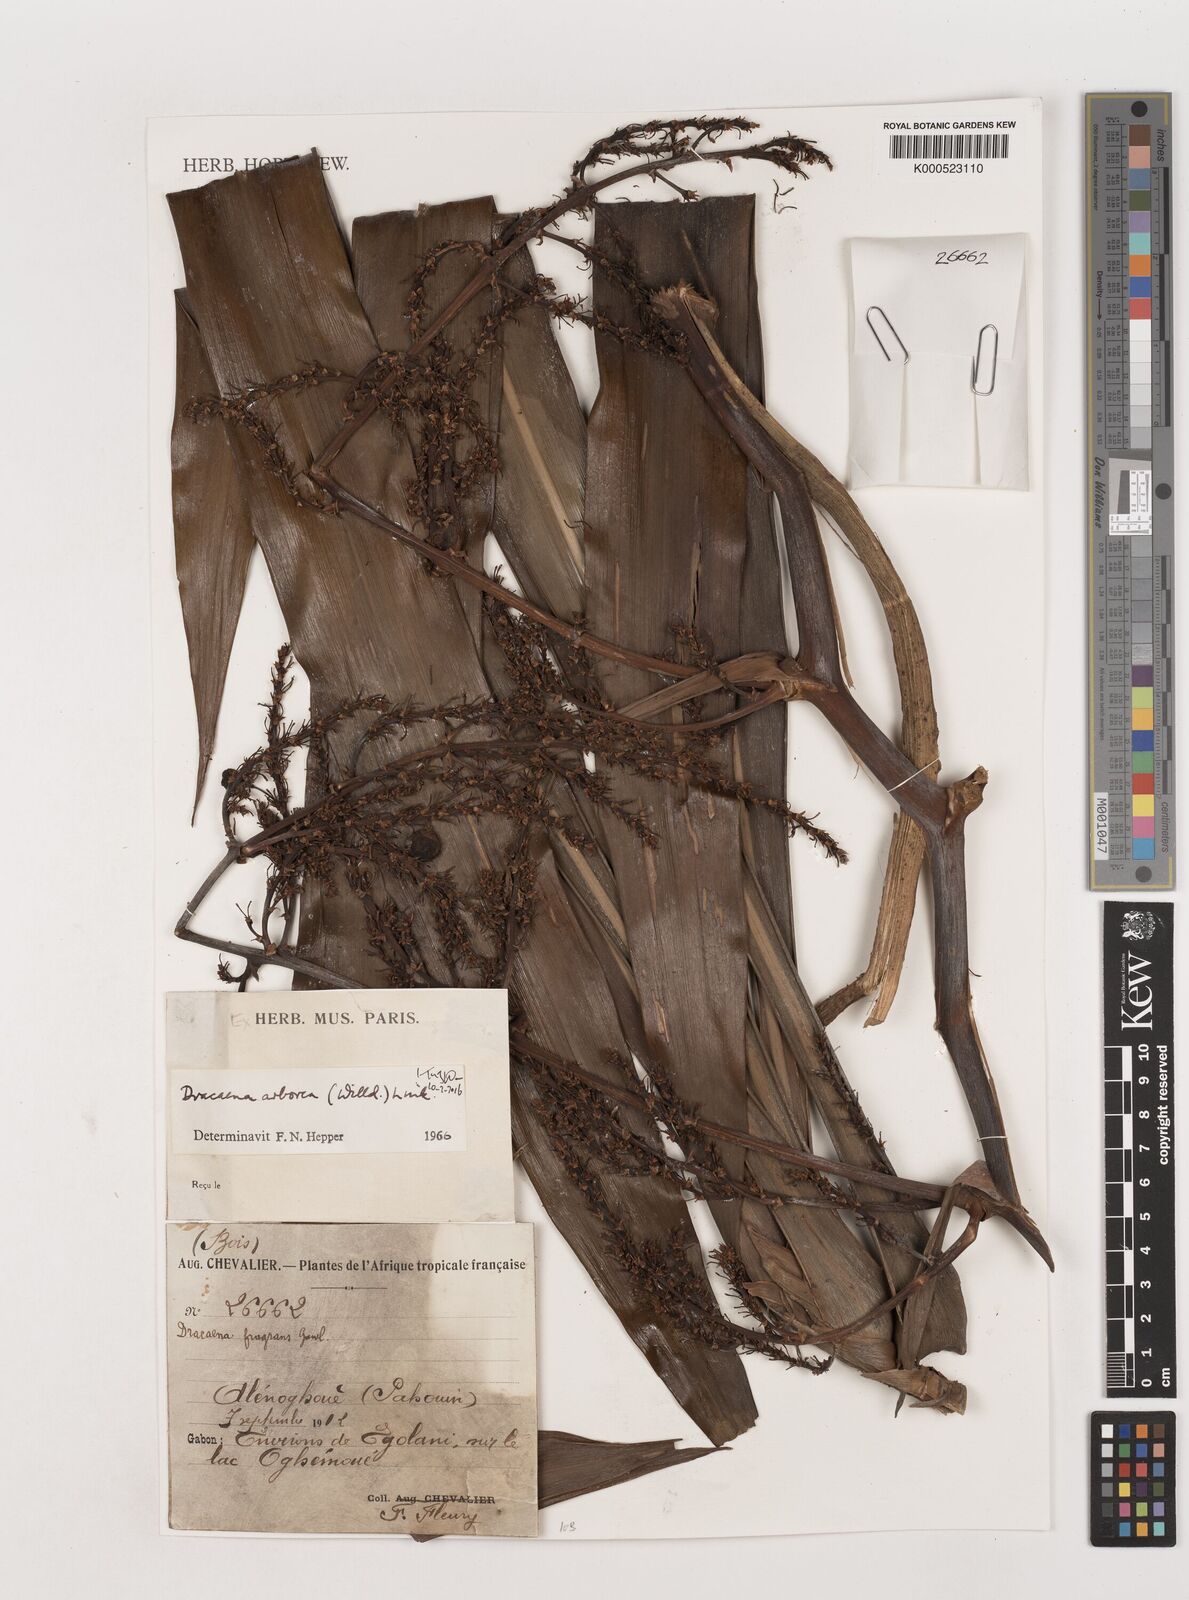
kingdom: Plantae
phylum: Tracheophyta
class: Liliopsida
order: Asparagales
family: Asparagaceae
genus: Dracaena
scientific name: Dracaena arborea
